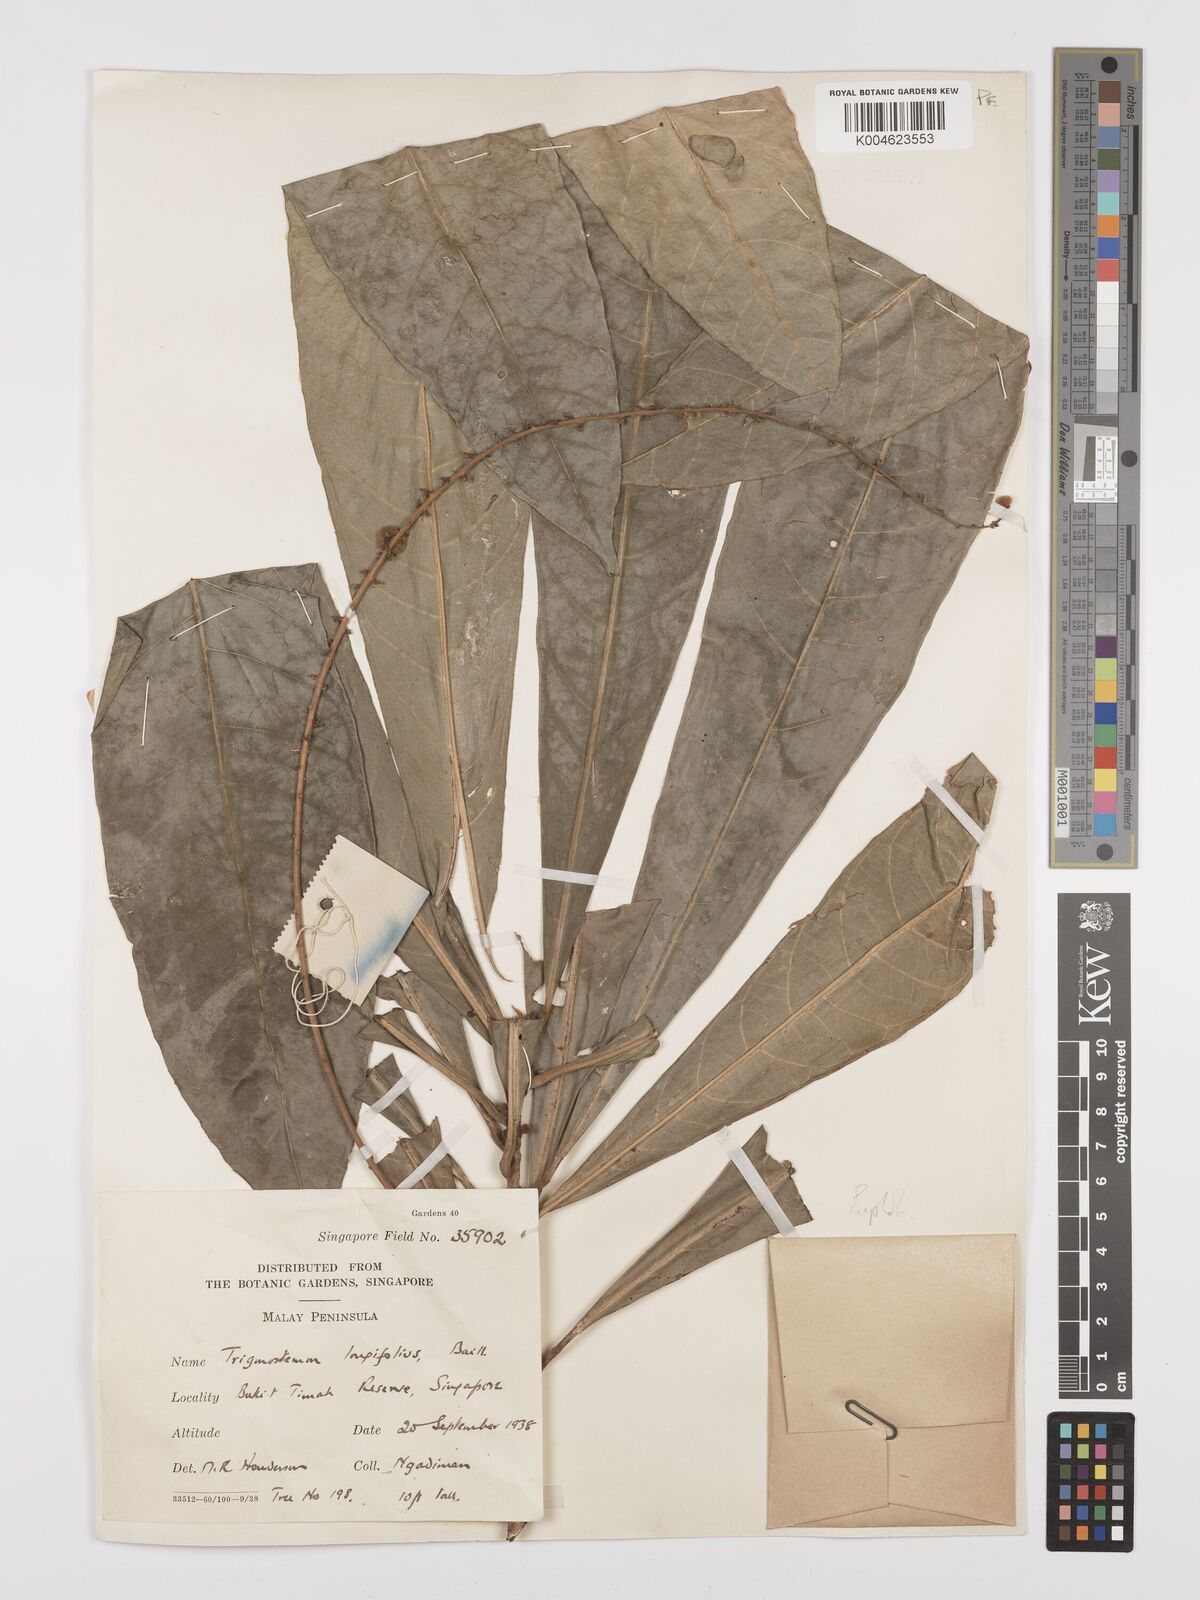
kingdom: Plantae
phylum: Tracheophyta
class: Magnoliopsida
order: Malpighiales
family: Euphorbiaceae
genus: Trigonostemon
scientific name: Trigonostemon longifolius
